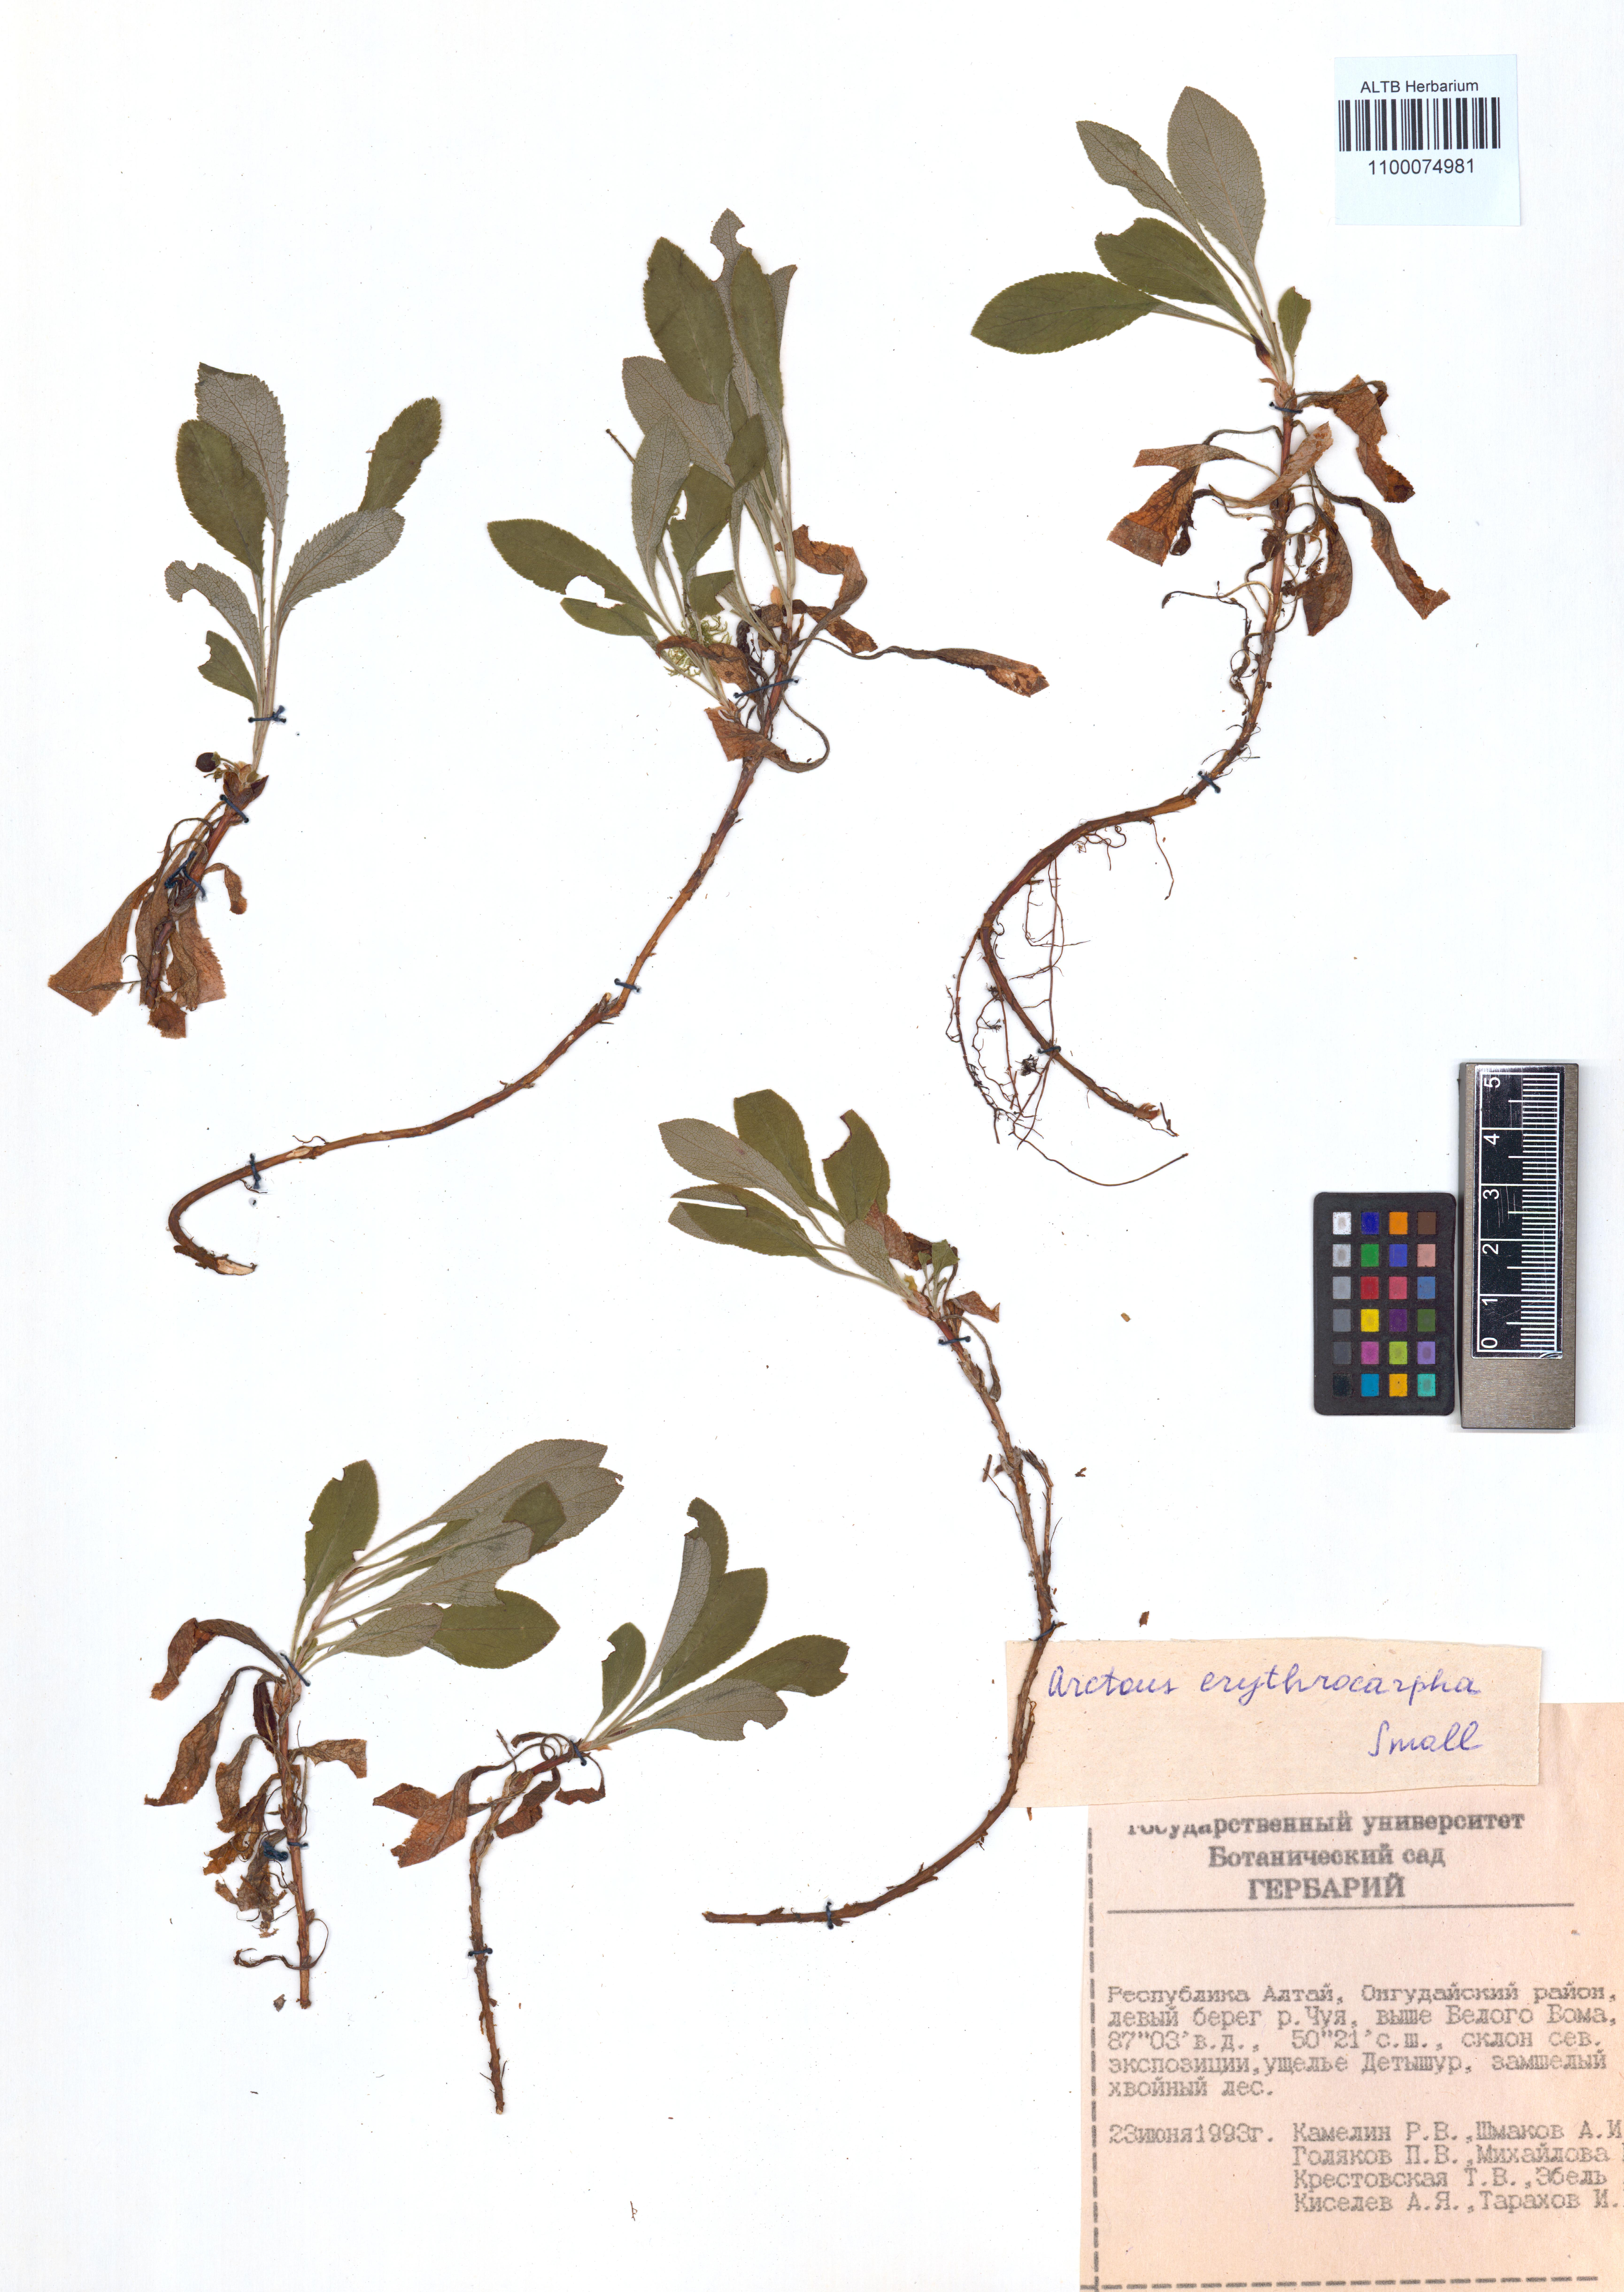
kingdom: Plantae
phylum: Tracheophyta
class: Magnoliopsida
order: Ericales
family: Ericaceae
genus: Arctostaphylos
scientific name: Arctostaphylos rubra
